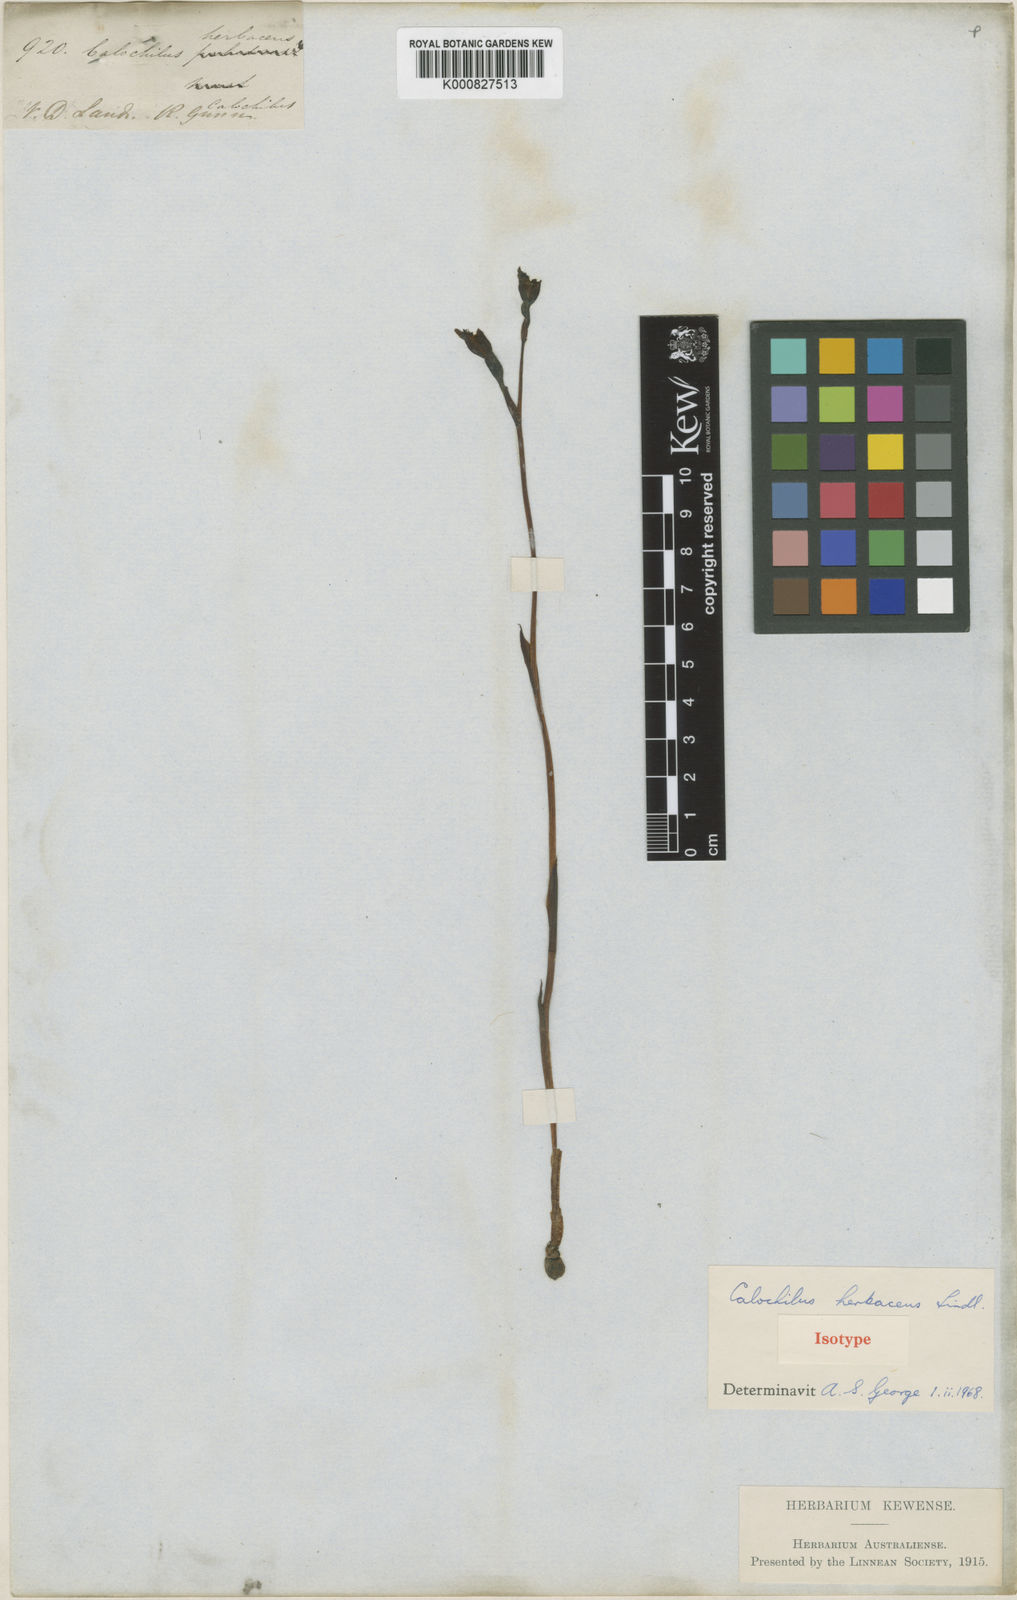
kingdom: Plantae
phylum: Tracheophyta
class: Liliopsida
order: Asparagales
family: Orchidaceae
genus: Calochilus
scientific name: Calochilus herbaceus
